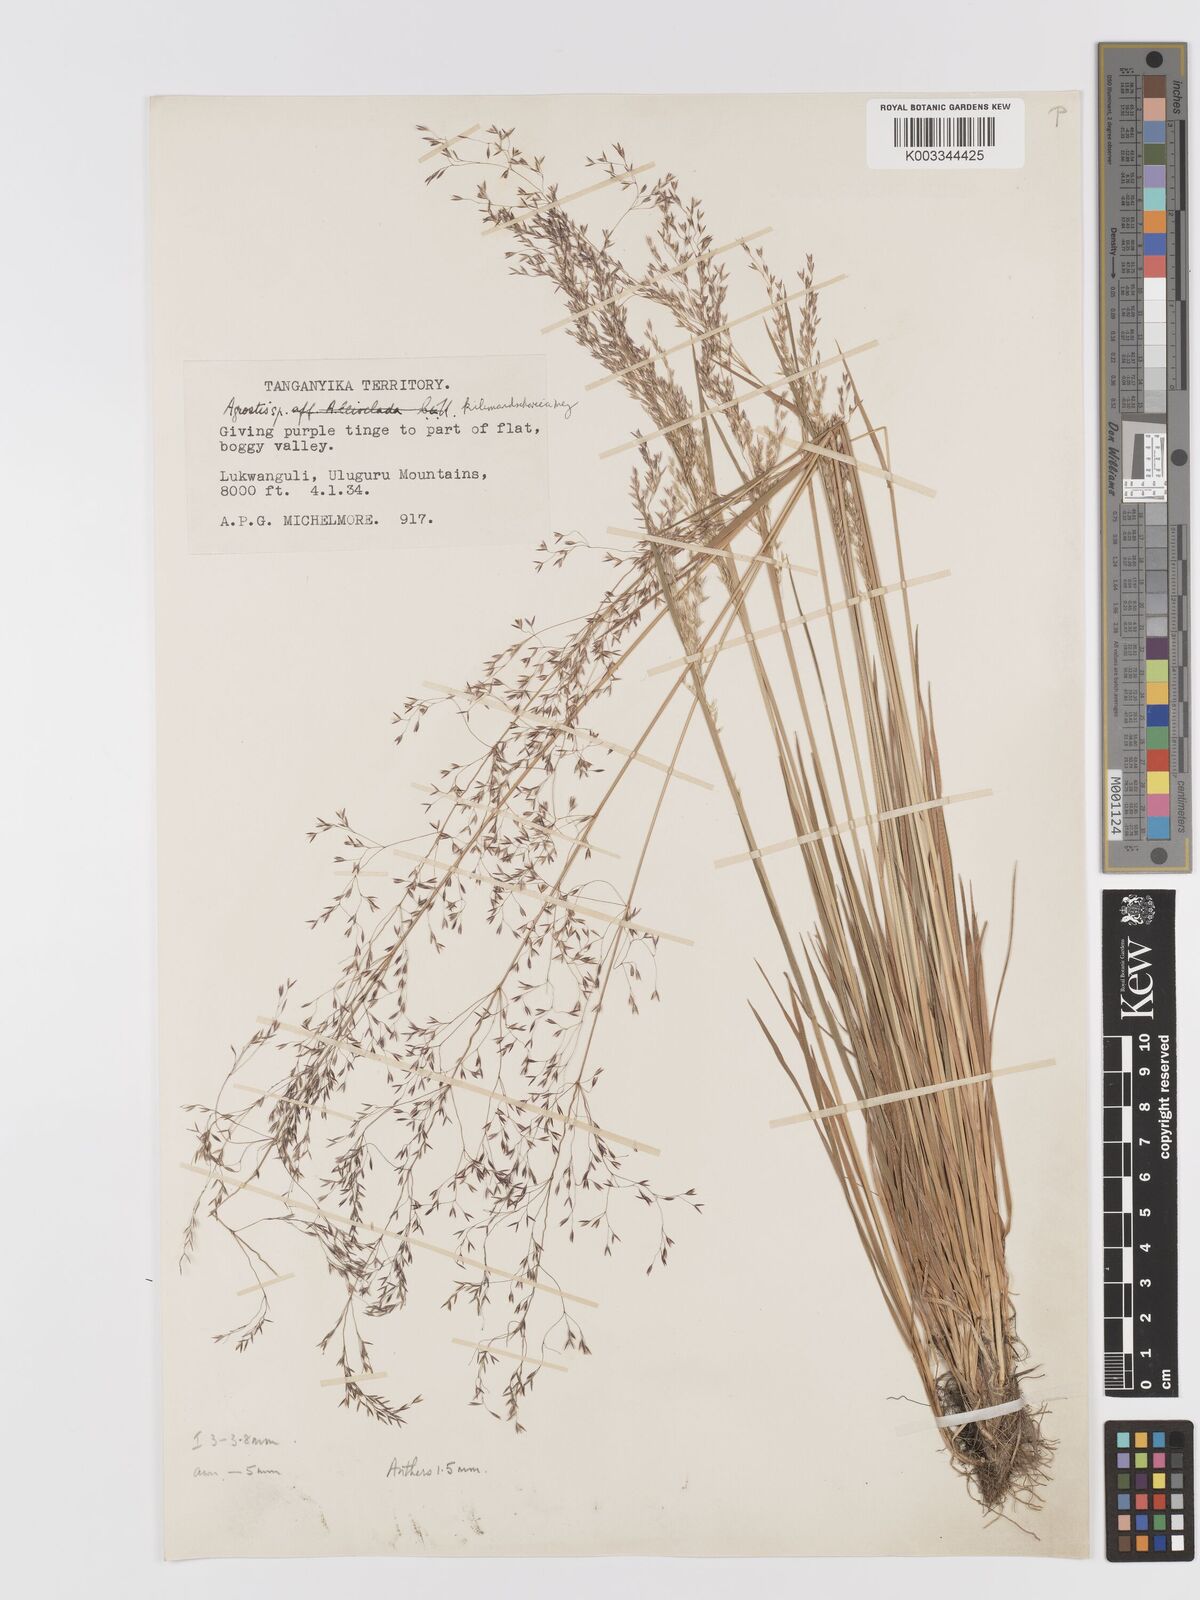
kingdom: Plantae
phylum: Tracheophyta
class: Liliopsida
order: Poales
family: Poaceae
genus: Agrostis
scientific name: Agrostis kilimandscharica
